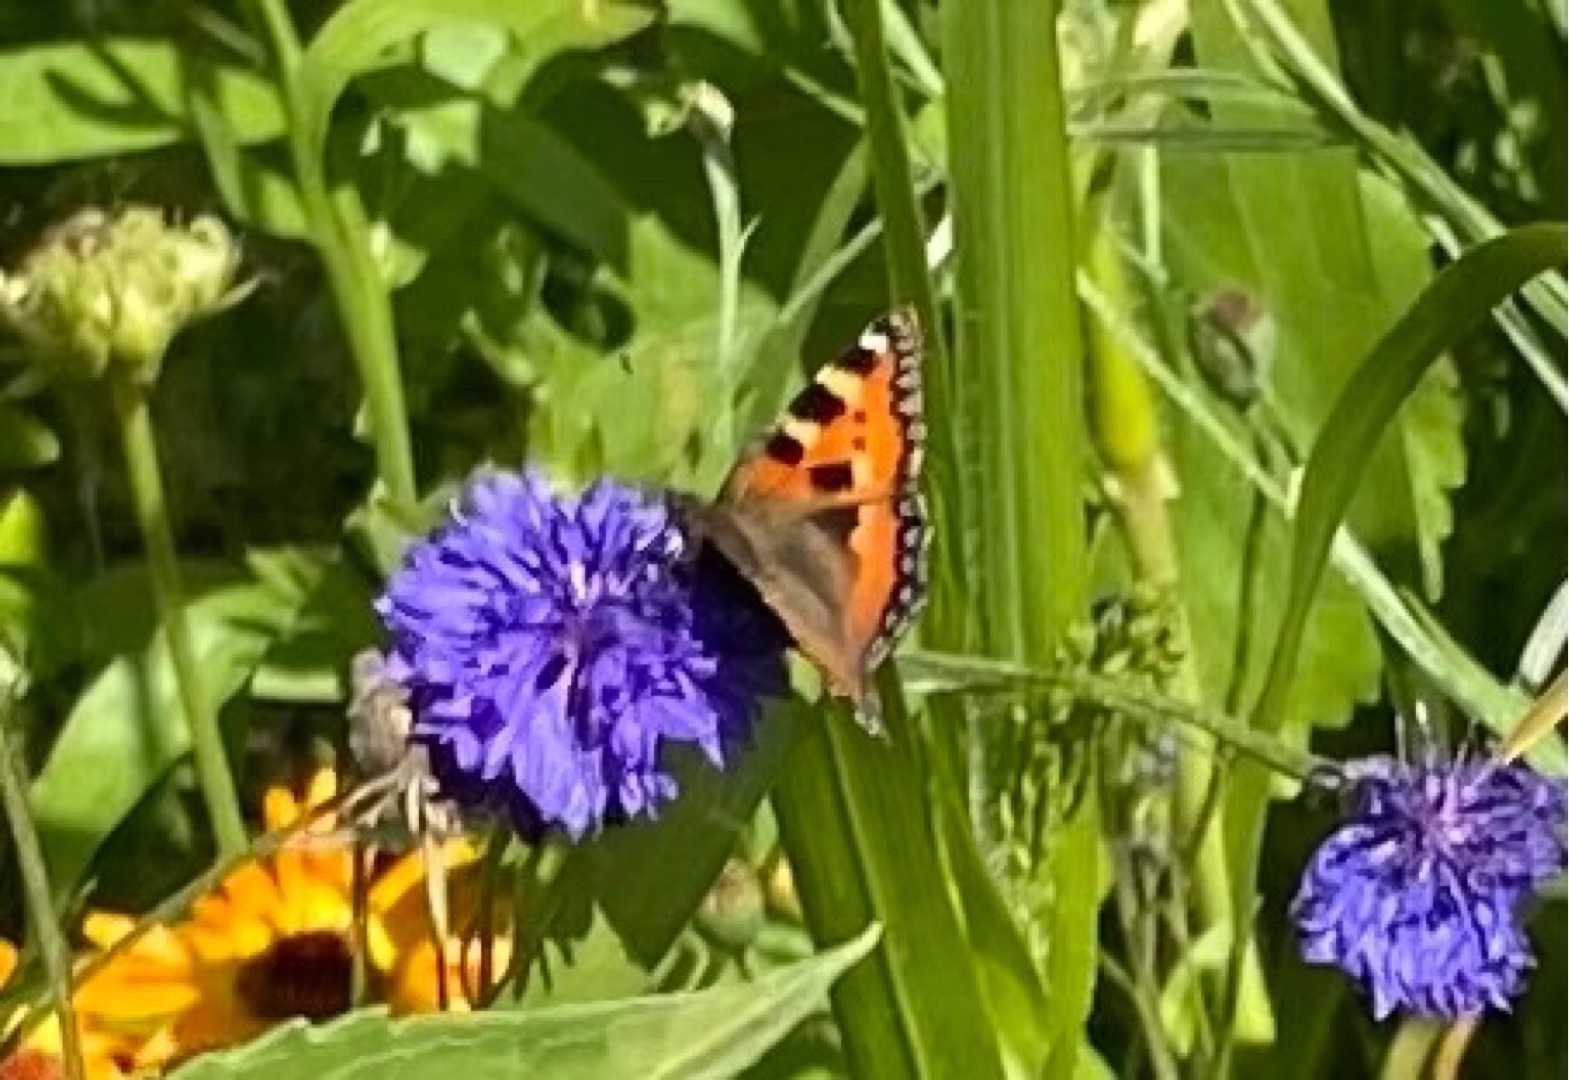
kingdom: Animalia
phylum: Arthropoda
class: Insecta
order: Lepidoptera
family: Nymphalidae
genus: Aglais
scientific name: Aglais urticae
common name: Nældens takvinge
